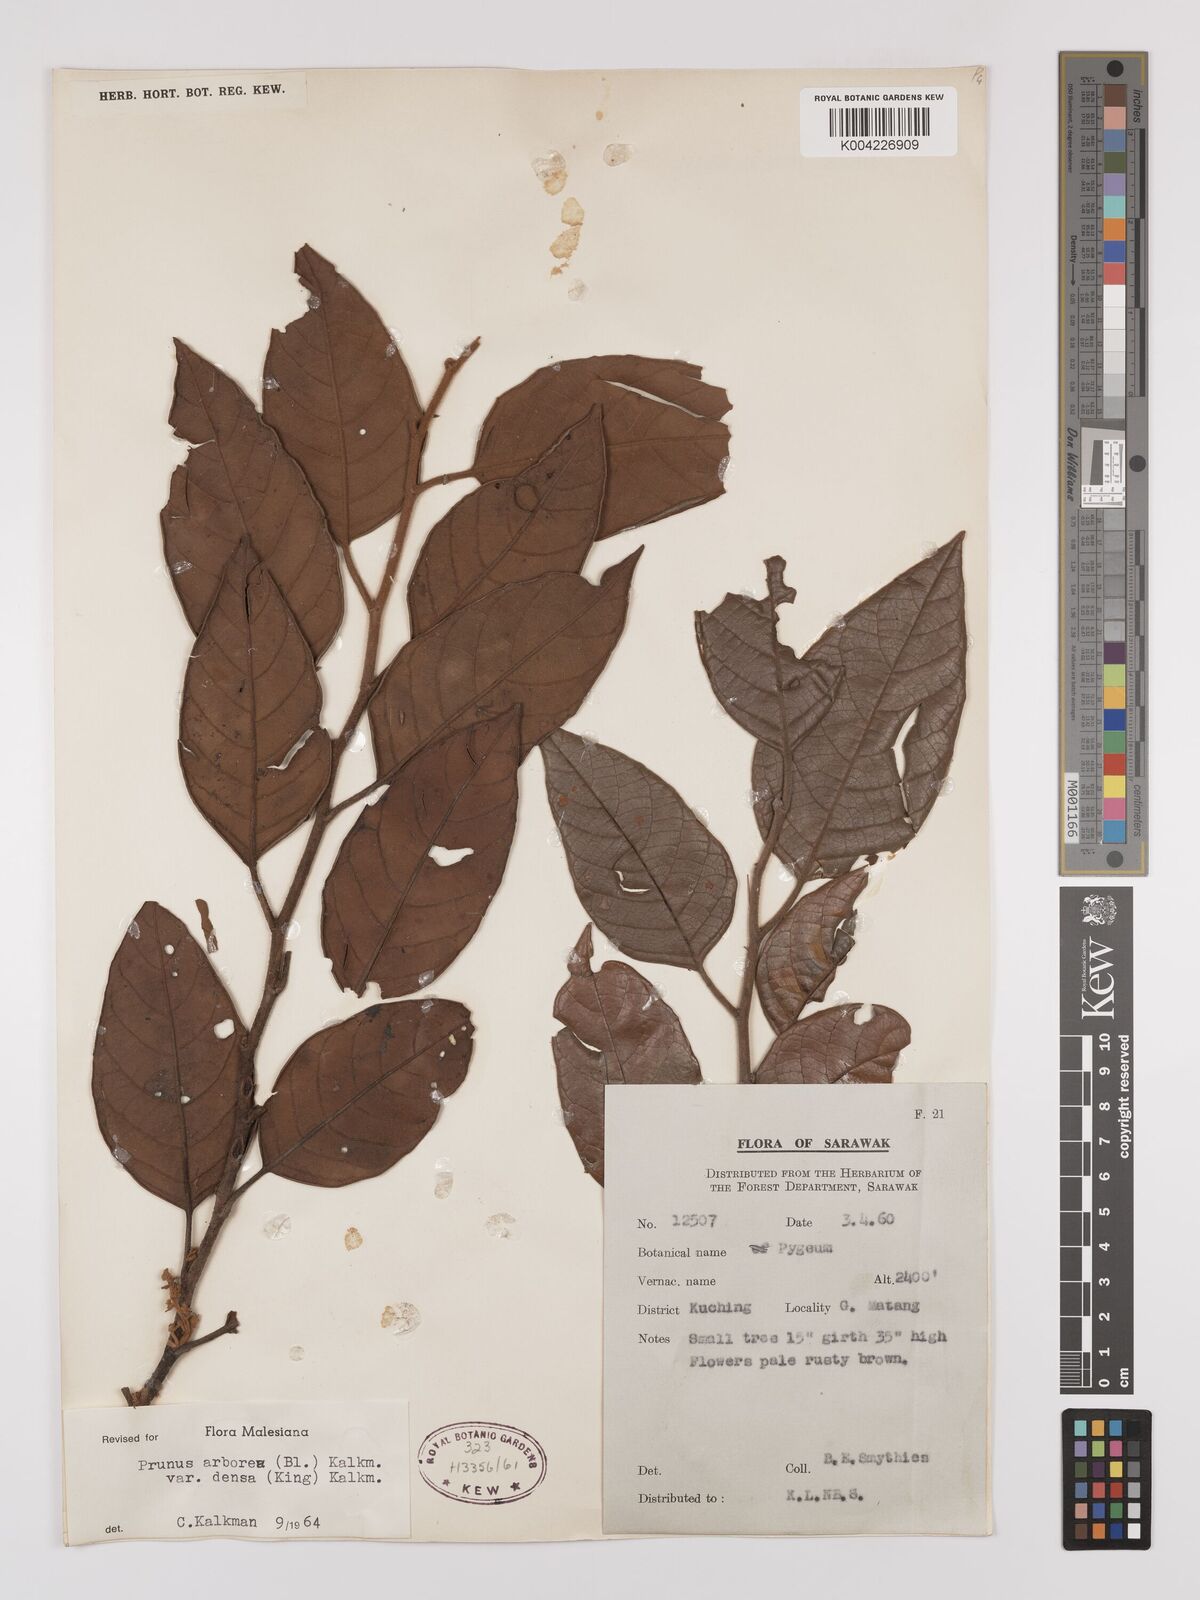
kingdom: Plantae
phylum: Tracheophyta
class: Magnoliopsida
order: Rosales
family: Rosaceae
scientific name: Rosaceae
